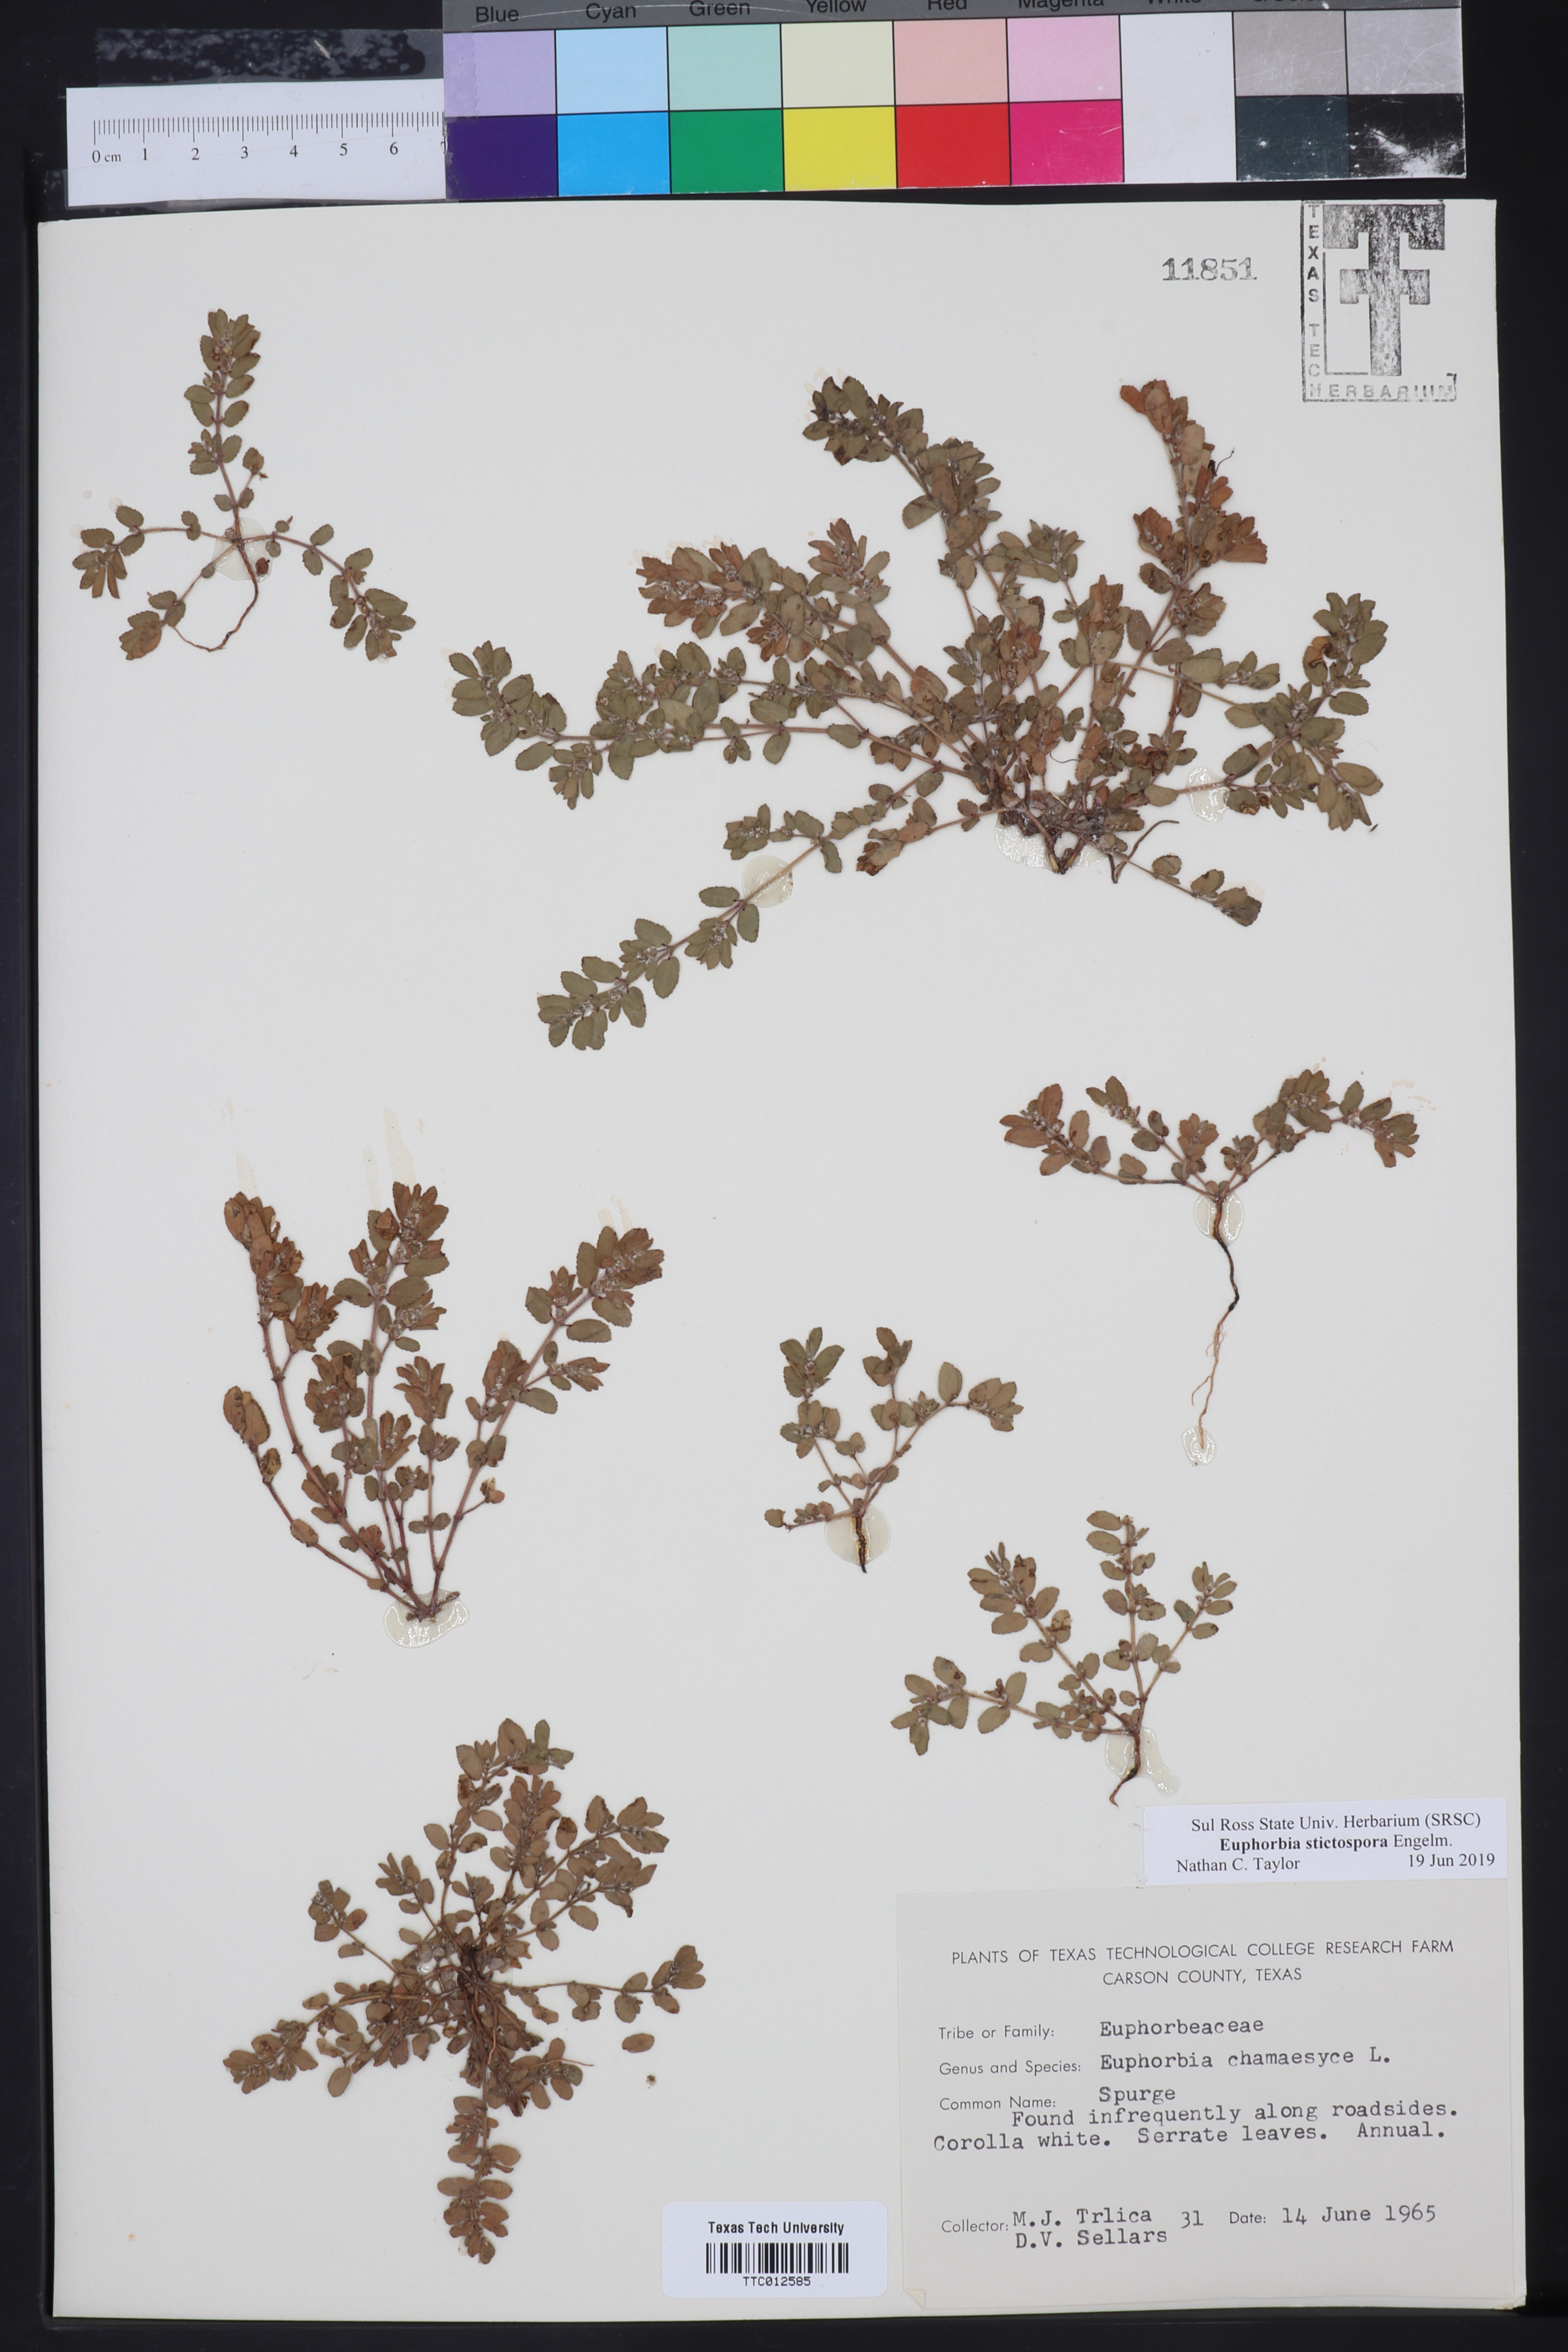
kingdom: Plantae
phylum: Tracheophyta
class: Magnoliopsida
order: Malpighiales
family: Euphorbiaceae
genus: Euphorbia
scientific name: Euphorbia stictospora
